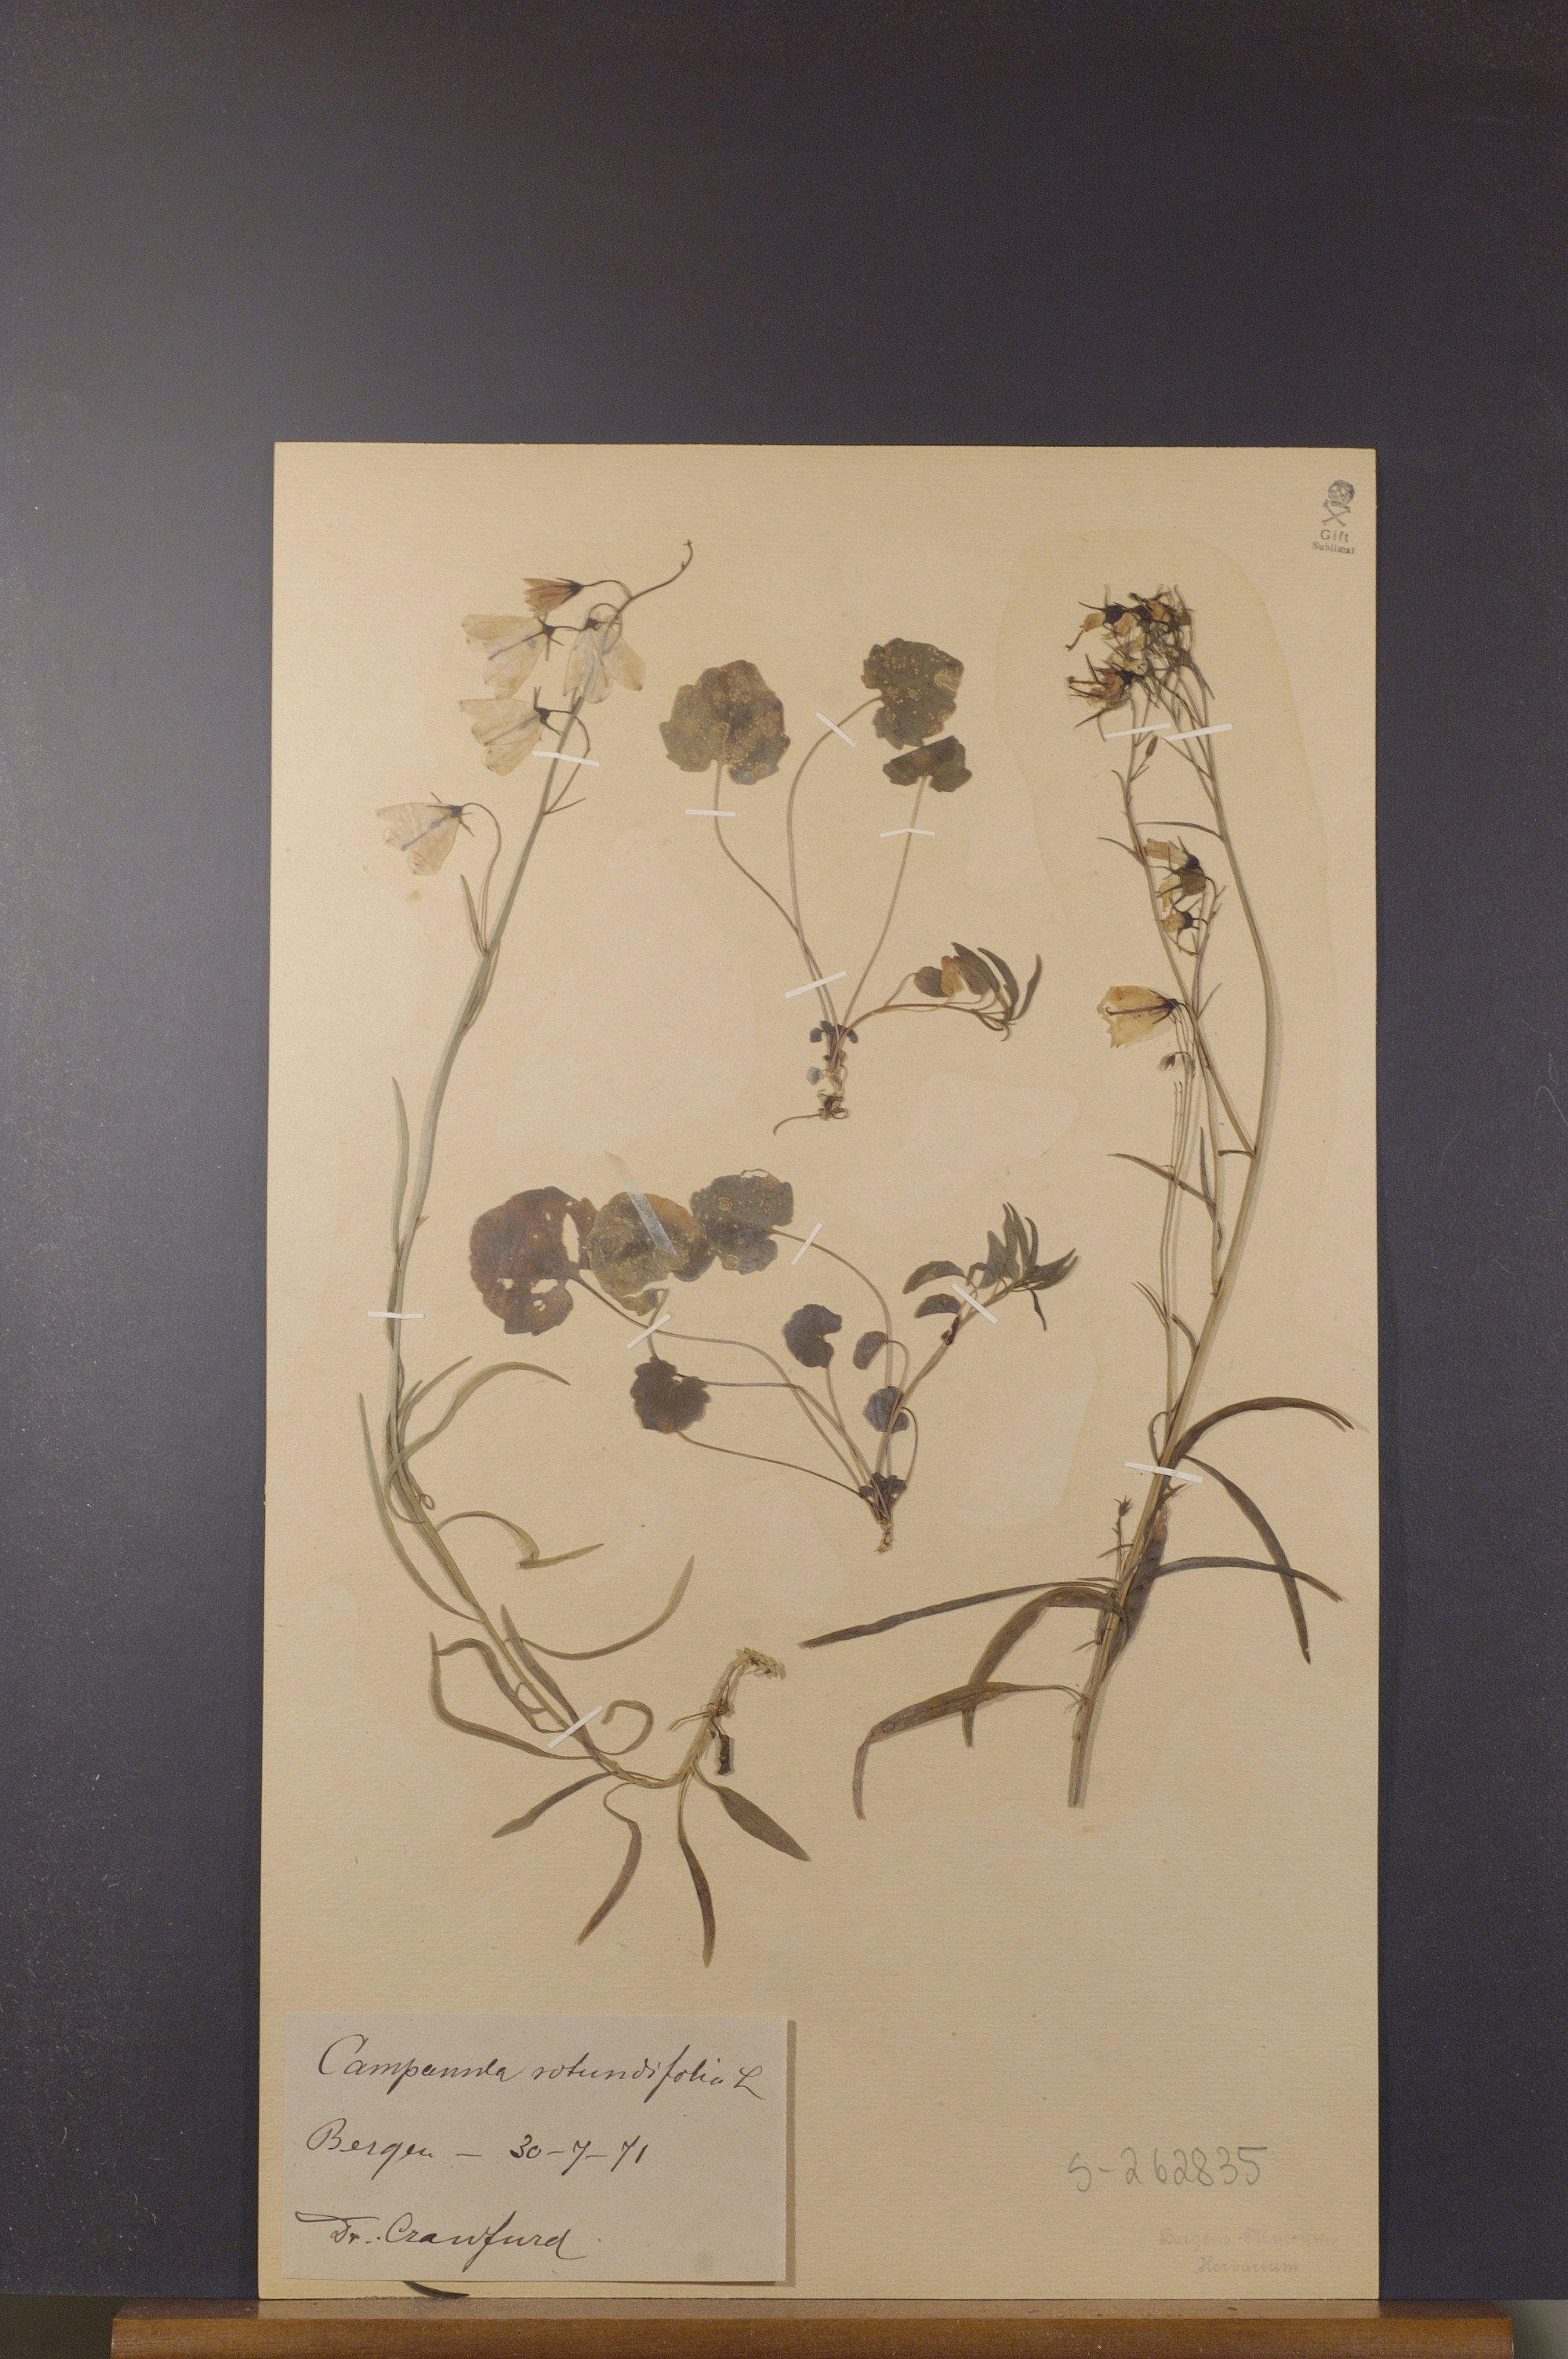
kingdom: Plantae
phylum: Tracheophyta
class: Magnoliopsida
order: Asterales
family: Campanulaceae
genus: Campanula
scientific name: Campanula rotundifolia
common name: Harebell
